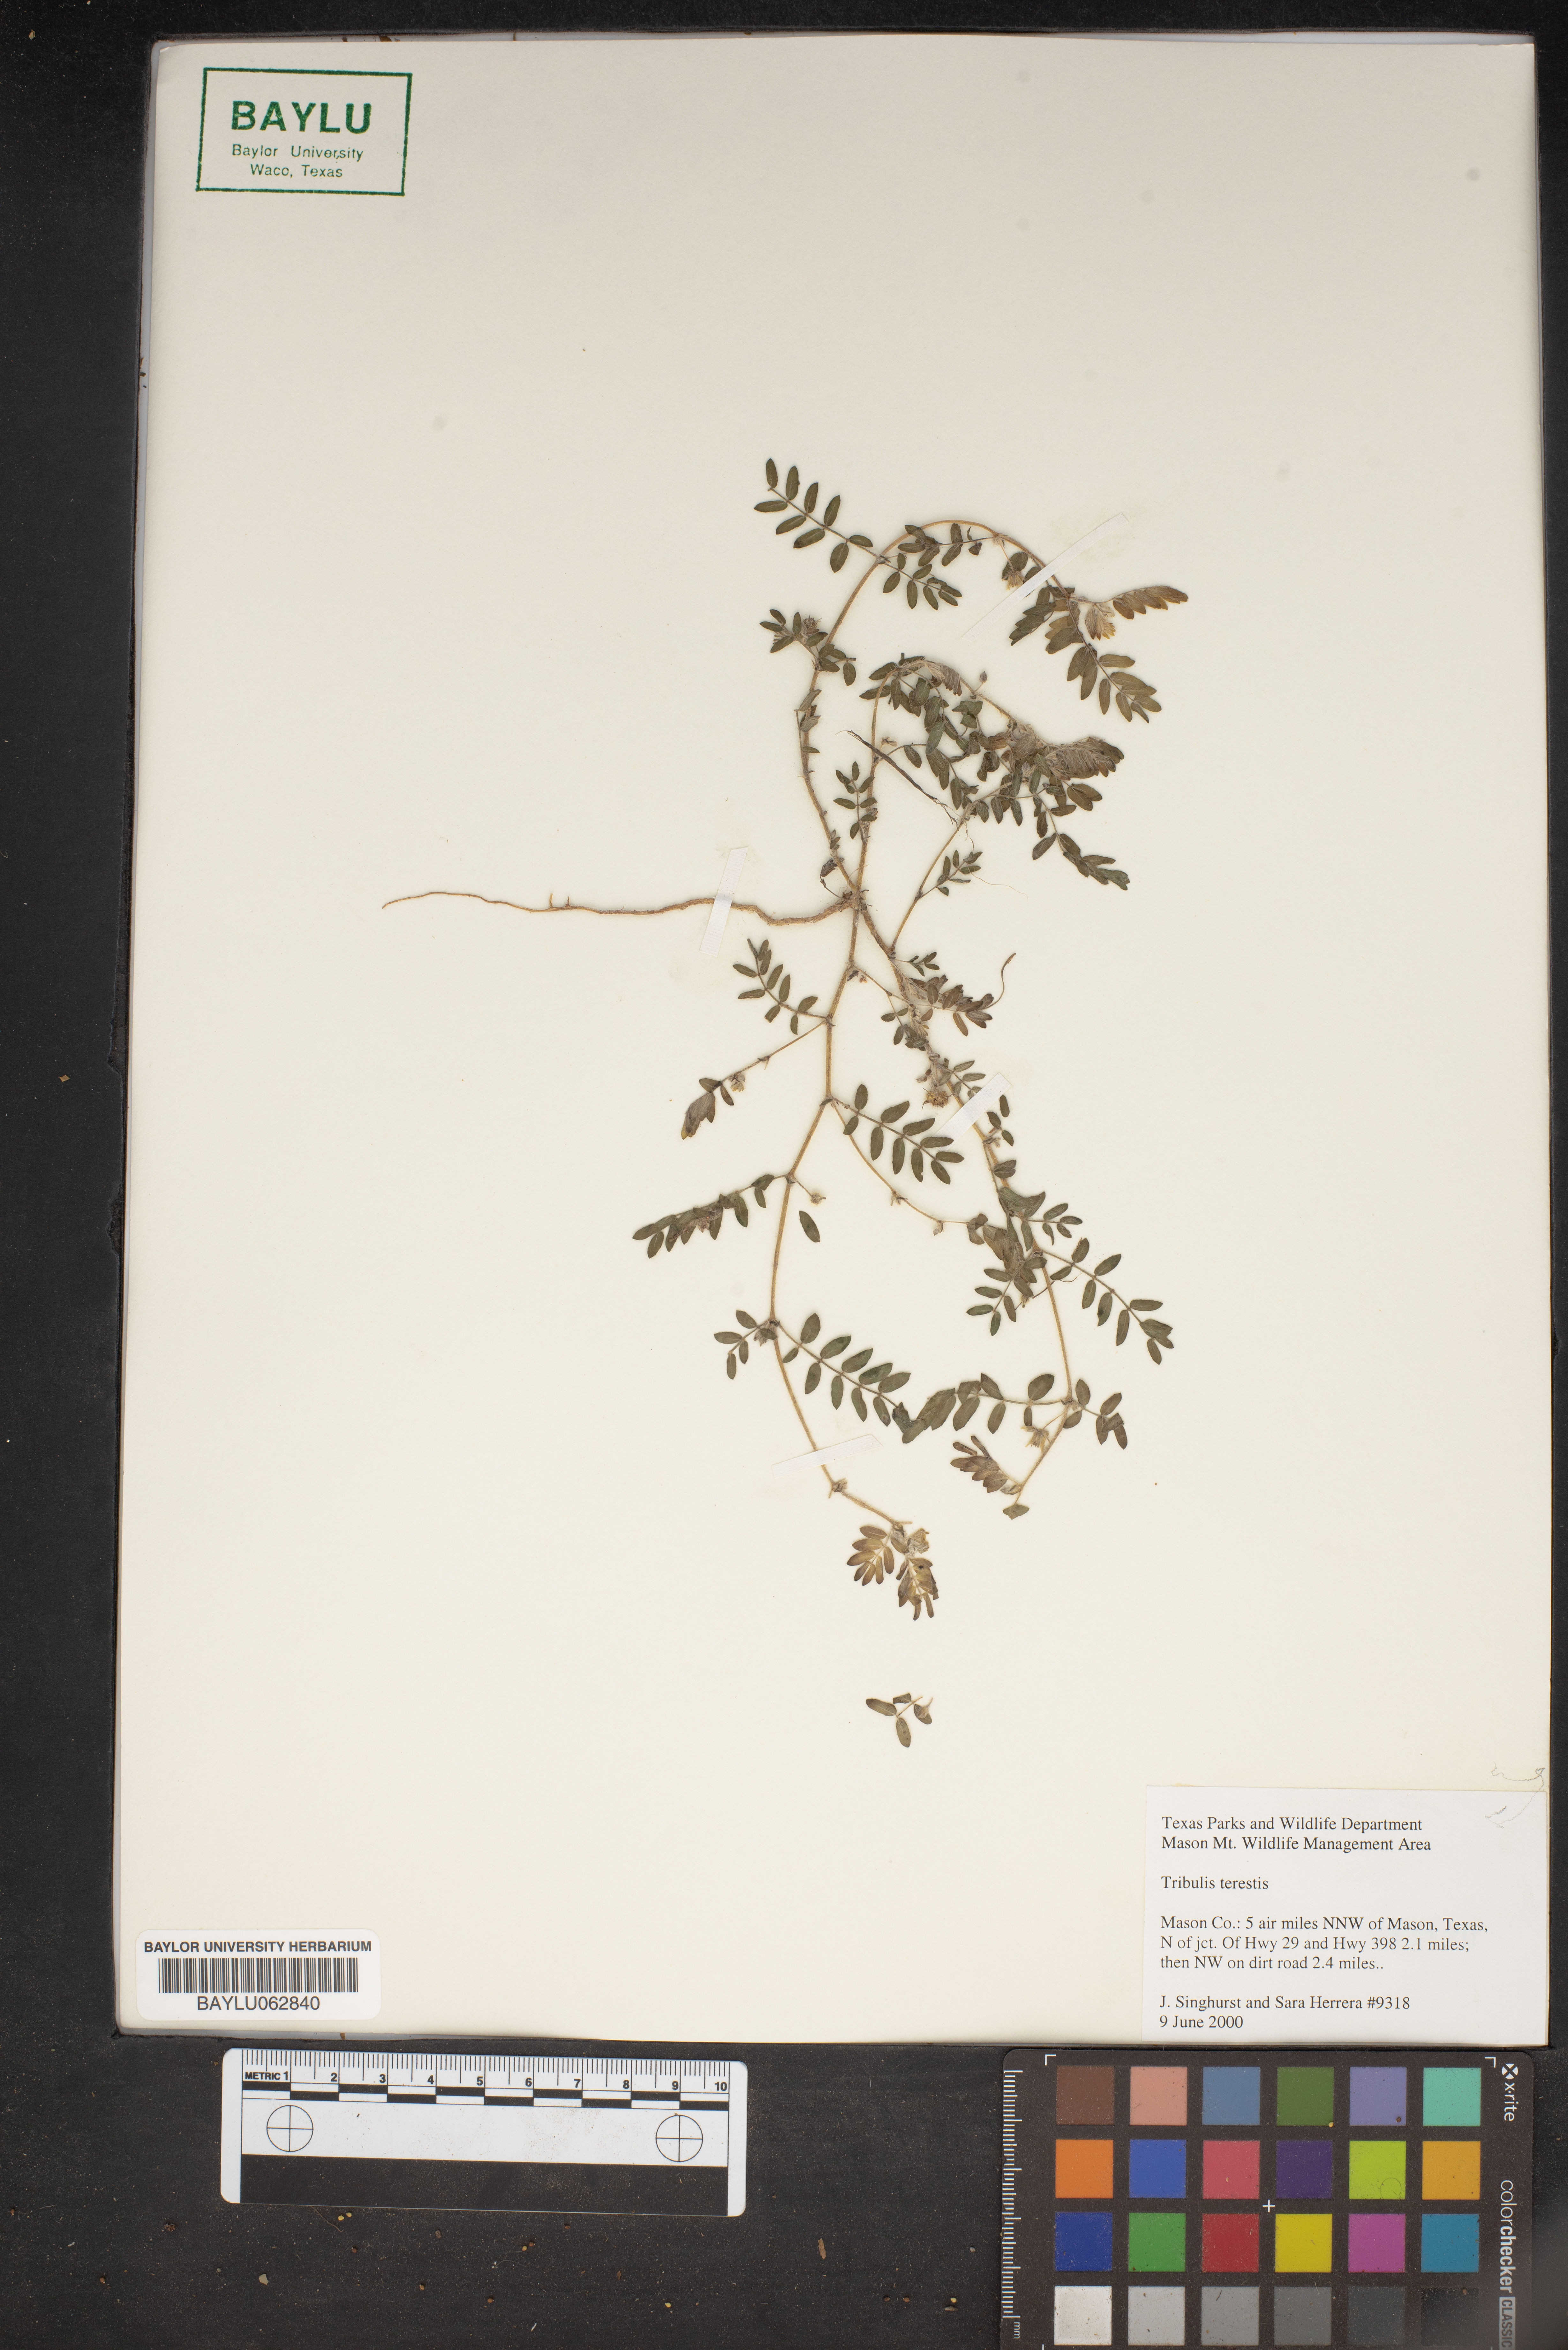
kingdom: Plantae
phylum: Tracheophyta
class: Magnoliopsida
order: Zygophyllales
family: Zygophyllaceae
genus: Tribulus
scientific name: Tribulus terrestris
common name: Puncturevine
